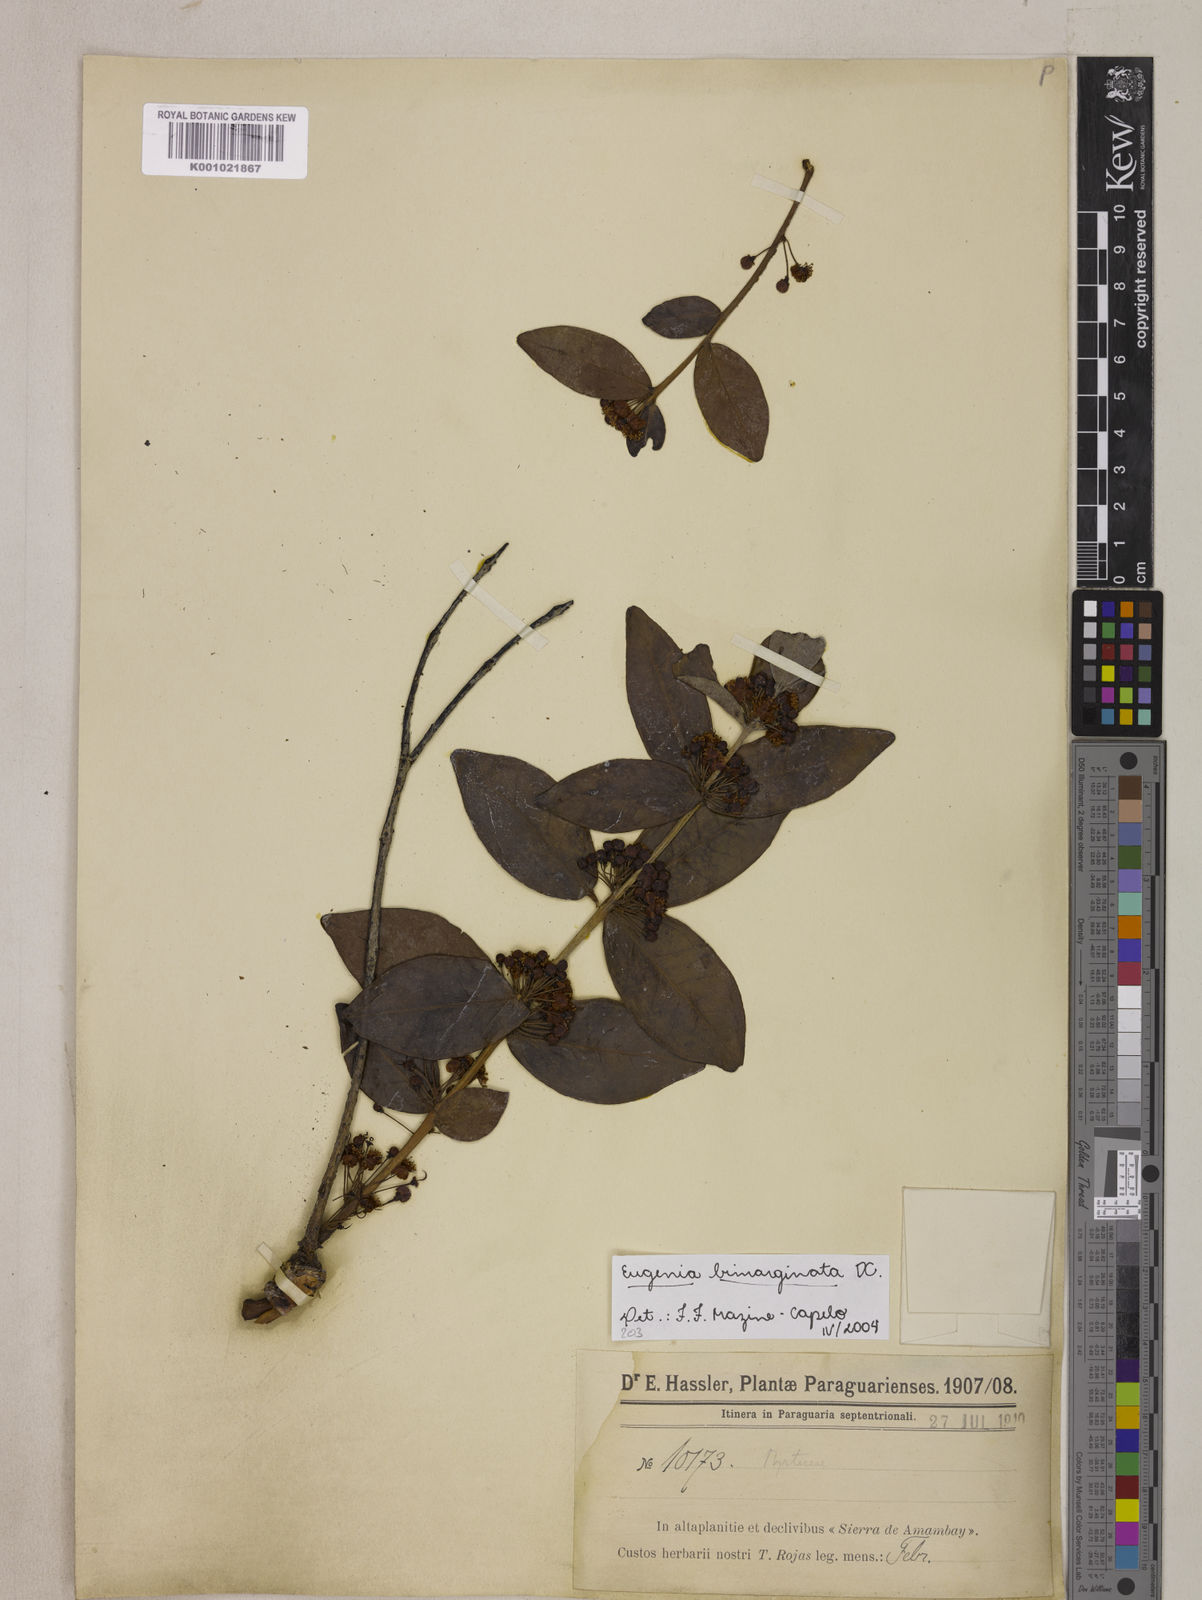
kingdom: Plantae
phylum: Tracheophyta
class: Magnoliopsida
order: Myrtales
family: Myrtaceae
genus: Eugenia
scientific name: Eugenia bimarginata
